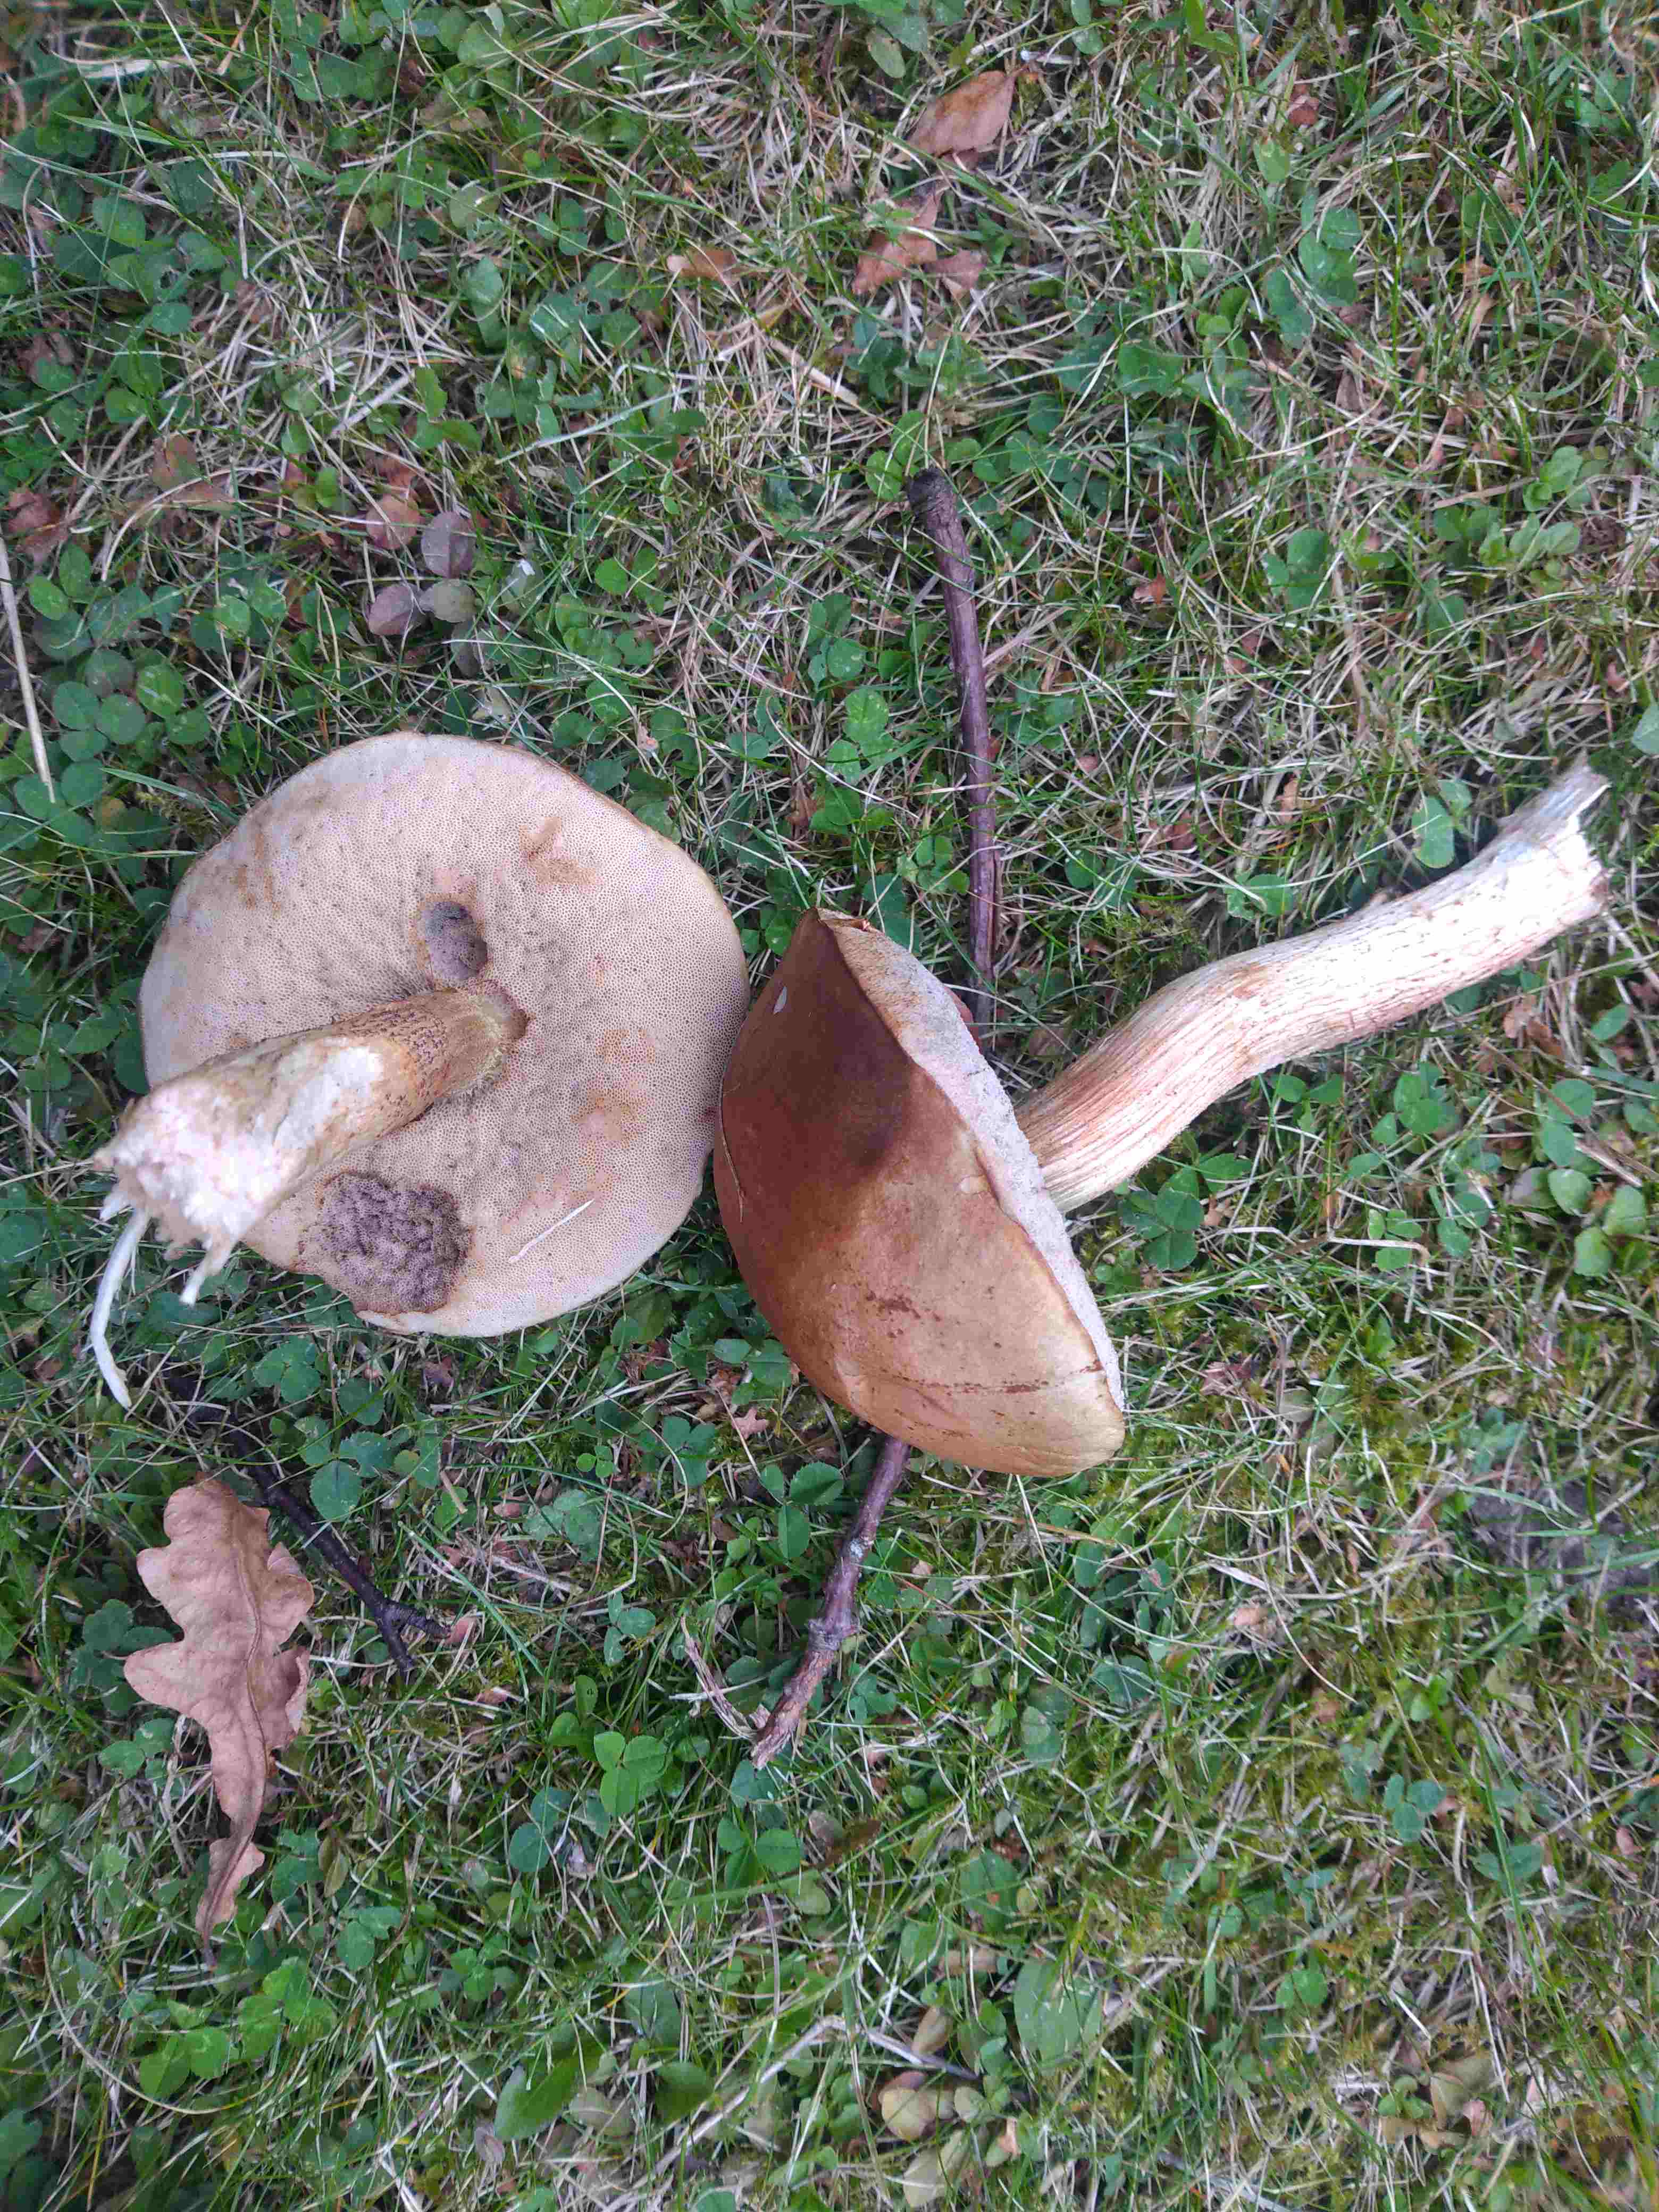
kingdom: Fungi
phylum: Basidiomycota
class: Agaricomycetes
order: Boletales
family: Boletaceae
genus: Leccinum
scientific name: Leccinum
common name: skælrørhat
